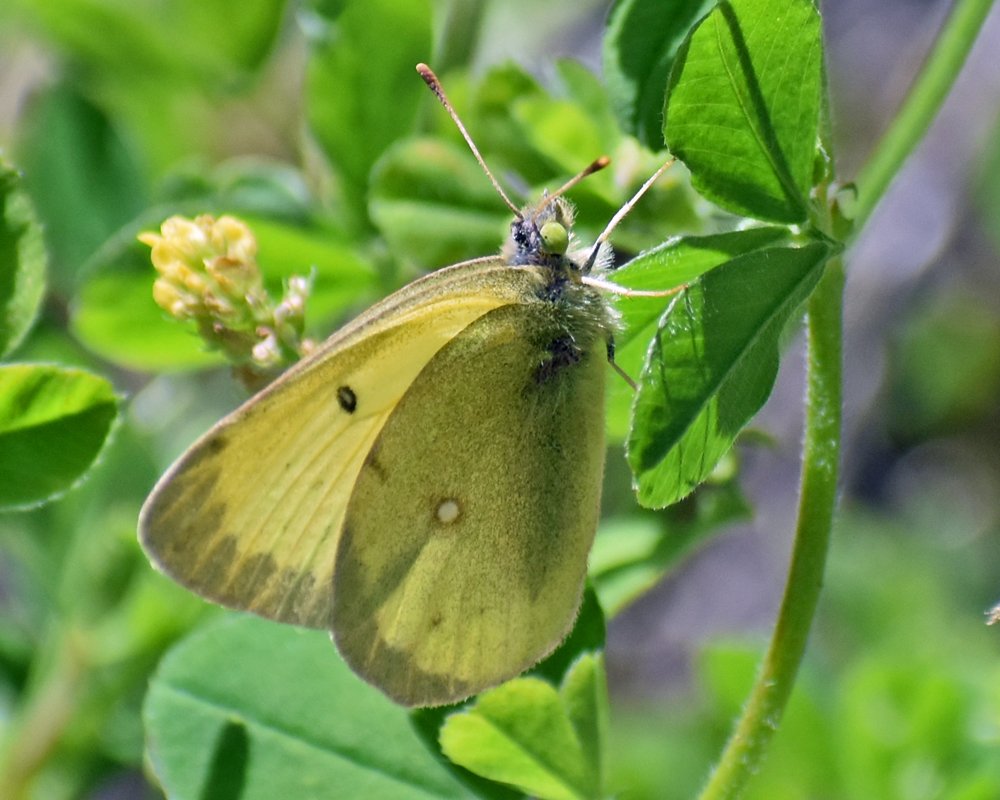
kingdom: Animalia
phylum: Arthropoda
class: Insecta
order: Lepidoptera
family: Pieridae
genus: Colias
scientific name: Colias philodice
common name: Clouded Sulphur
